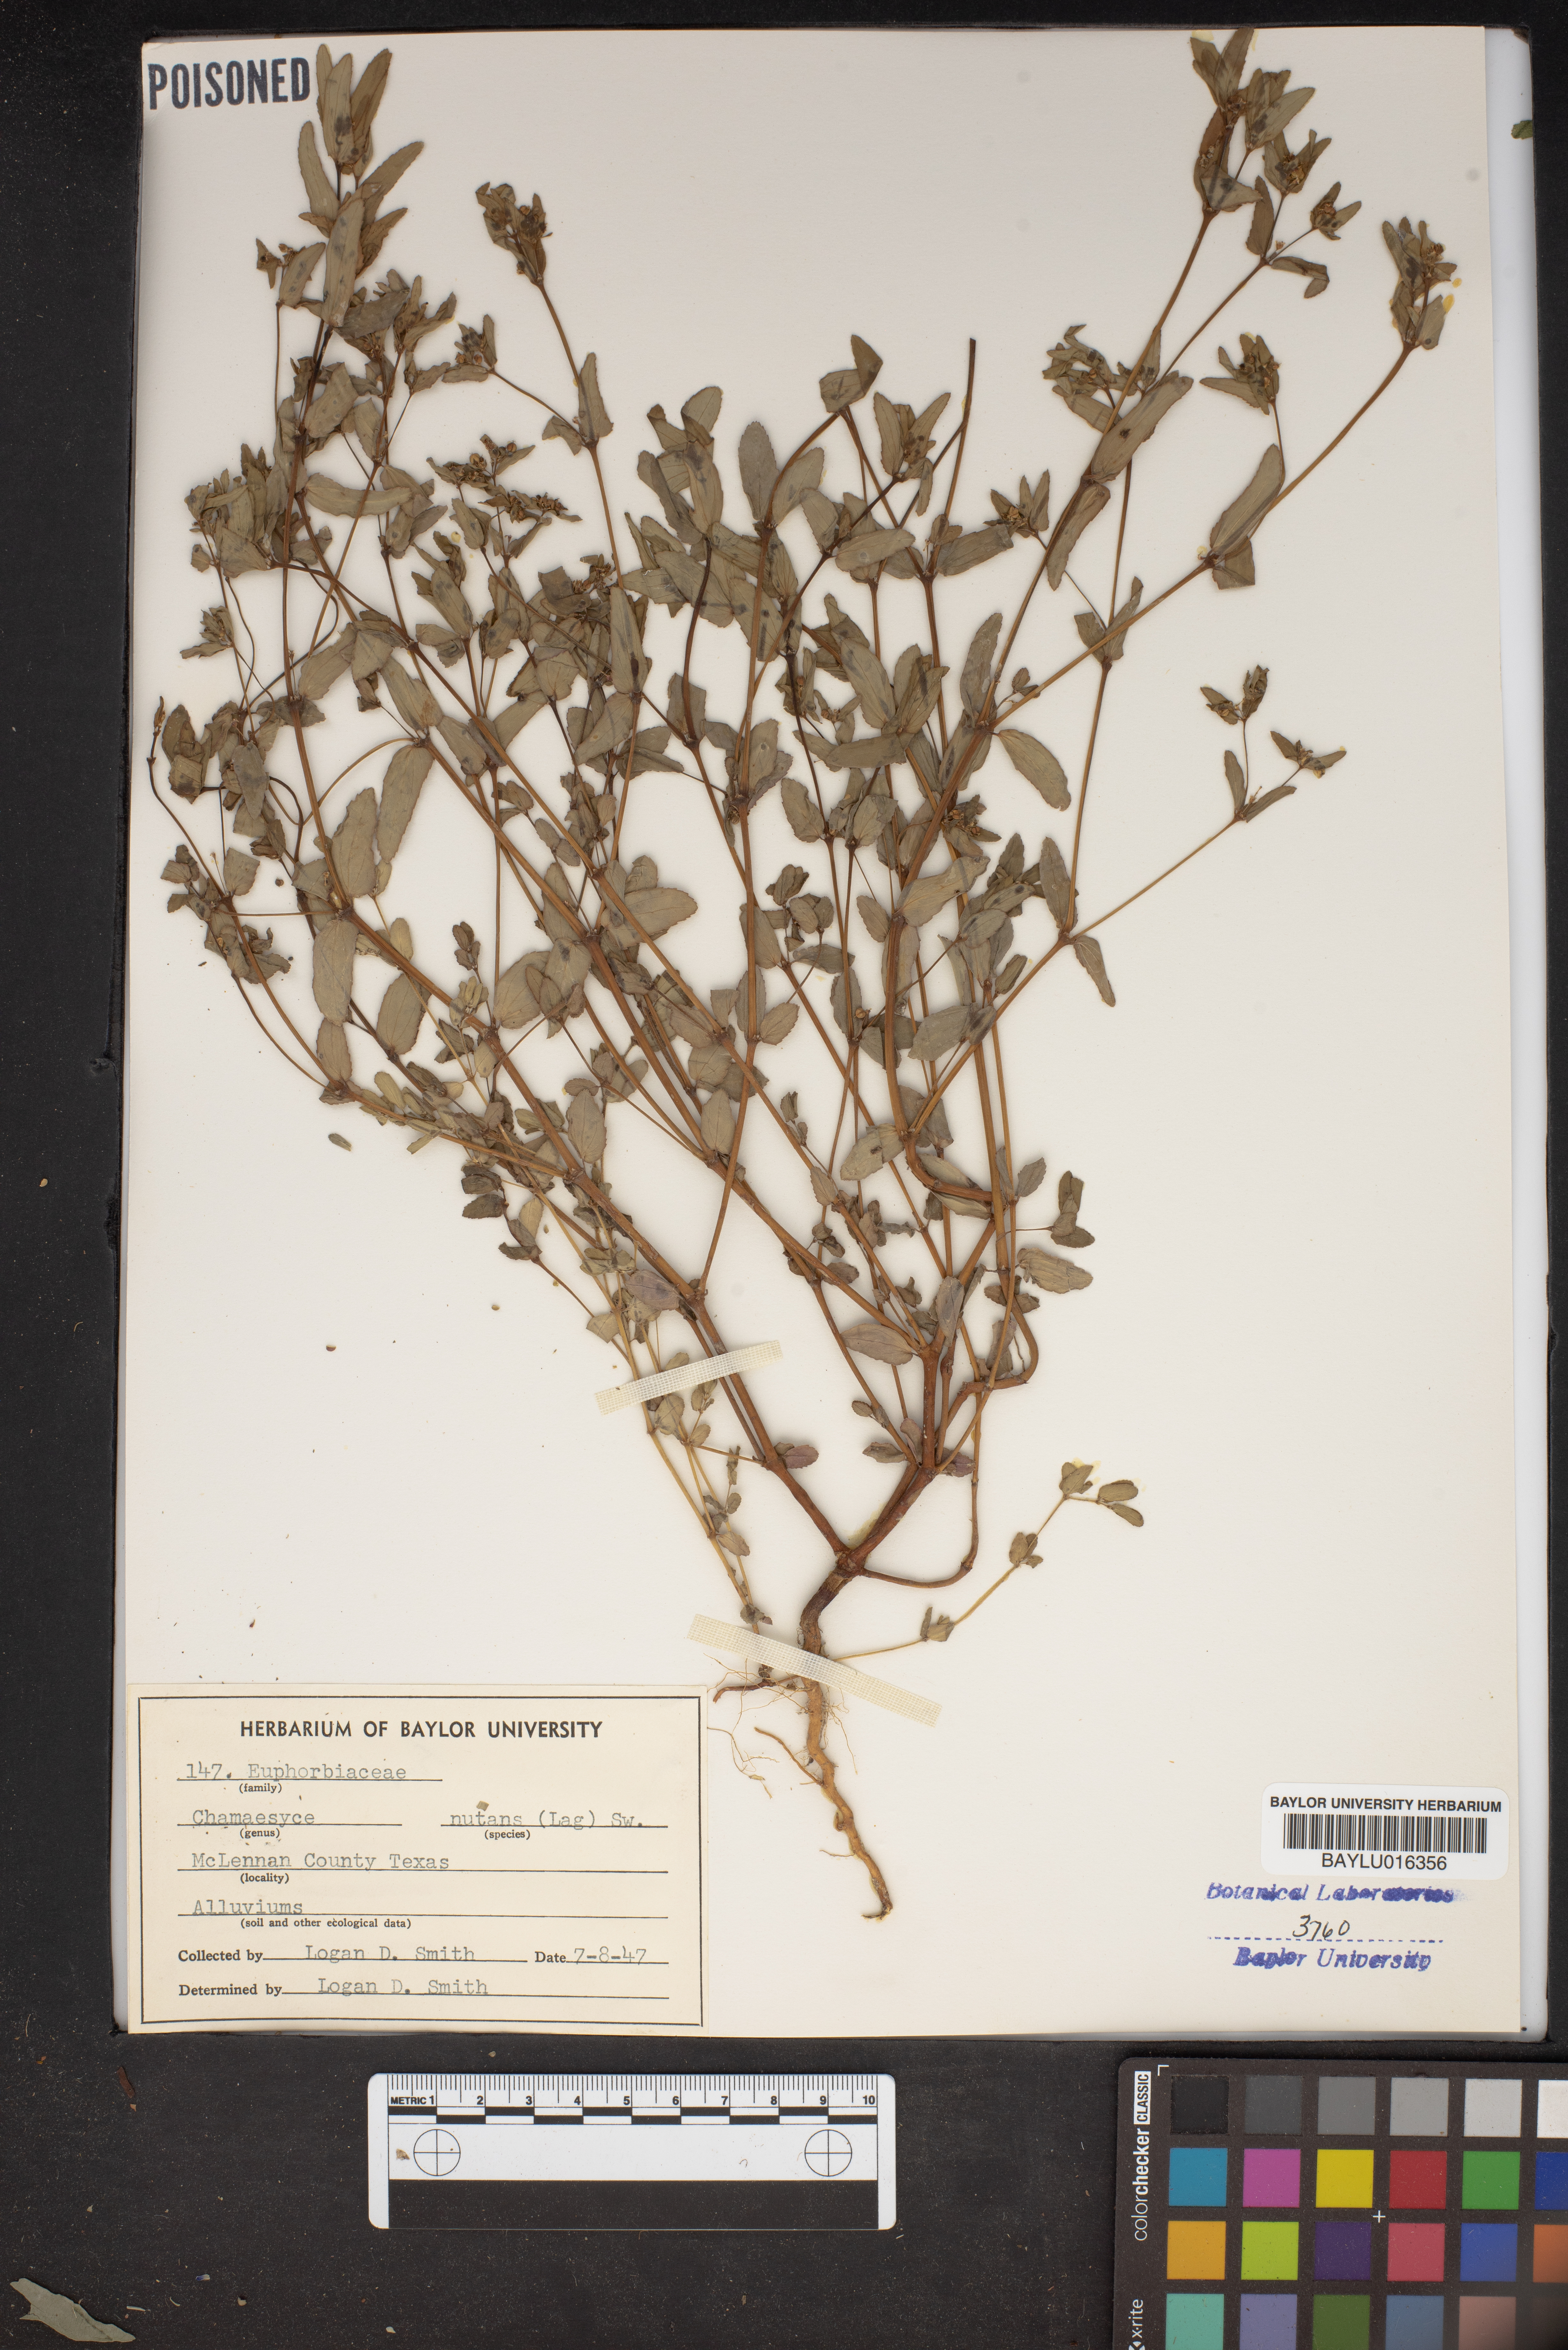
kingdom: Plantae
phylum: Tracheophyta
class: Magnoliopsida
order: Malpighiales
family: Euphorbiaceae
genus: Euphorbia
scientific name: Euphorbia nutans
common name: Eyebane
